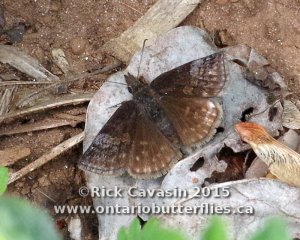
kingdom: Animalia
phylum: Arthropoda
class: Insecta
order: Lepidoptera
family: Hesperiidae
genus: Erynnis
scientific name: Erynnis icelus
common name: Dreamy Duskywing
